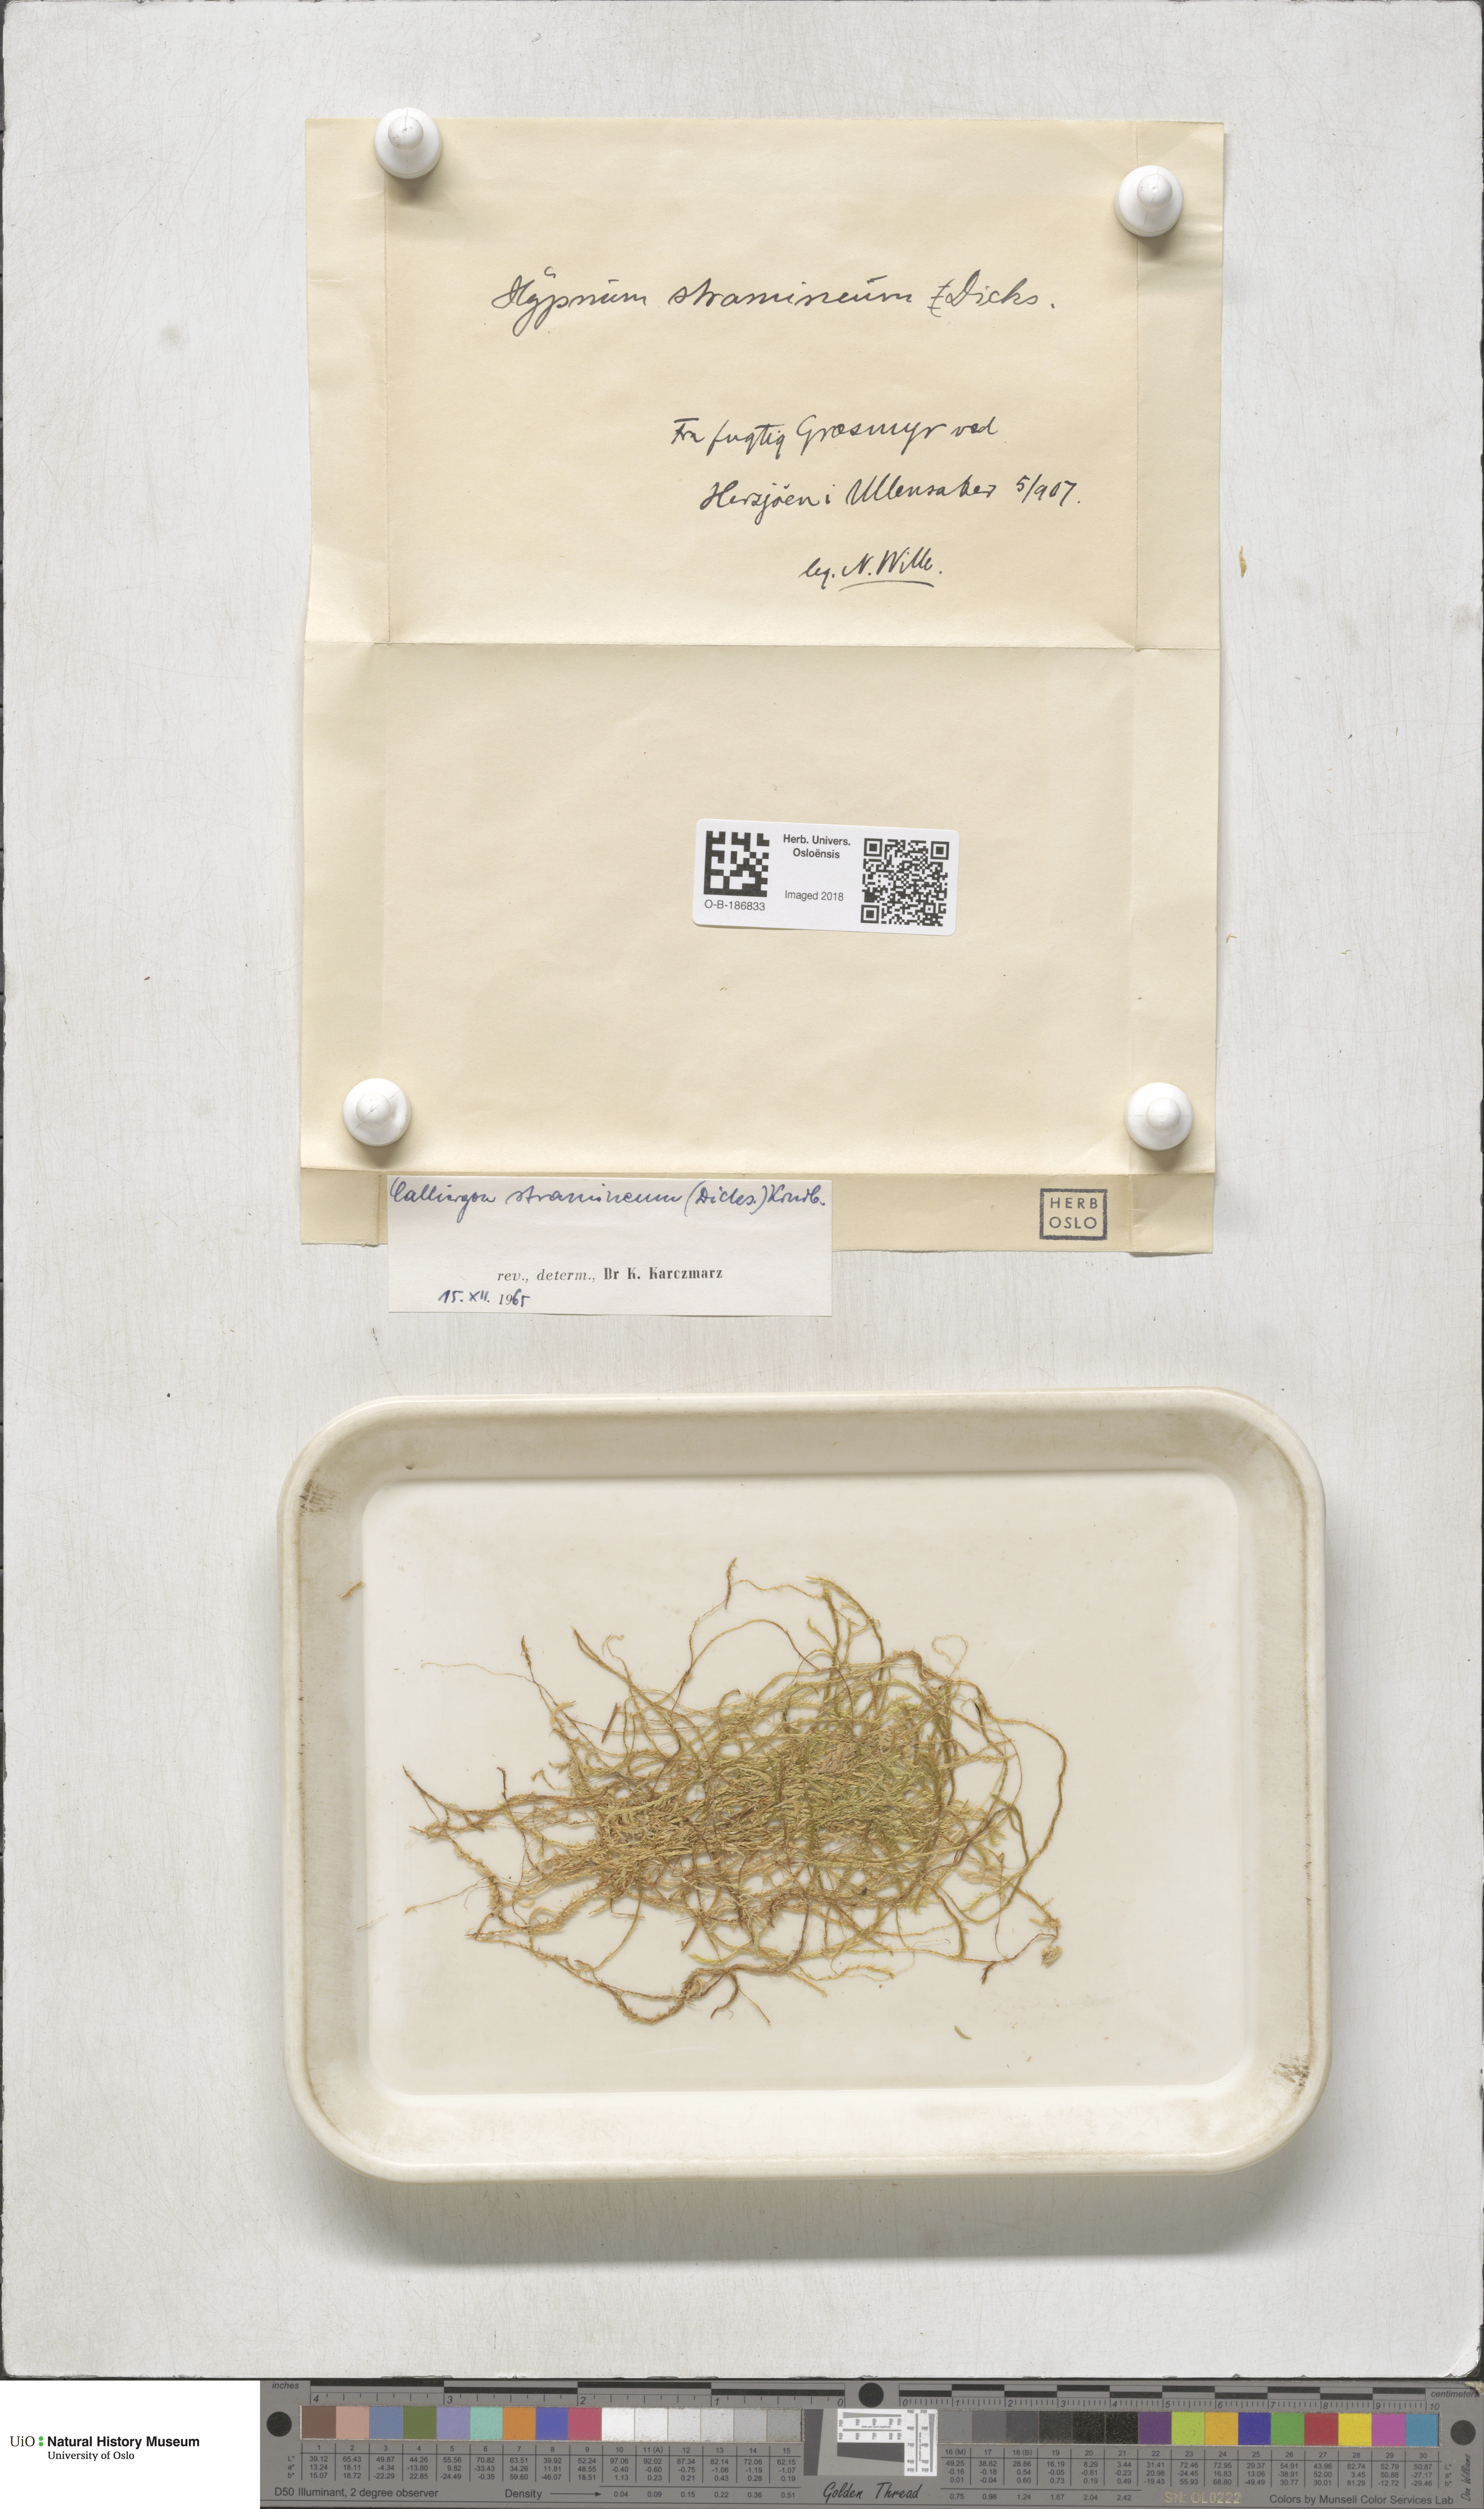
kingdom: Plantae
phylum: Bryophyta
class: Bryopsida
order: Hypnales
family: Calliergonaceae
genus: Straminergon
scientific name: Straminergon stramineum
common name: Straw moss
